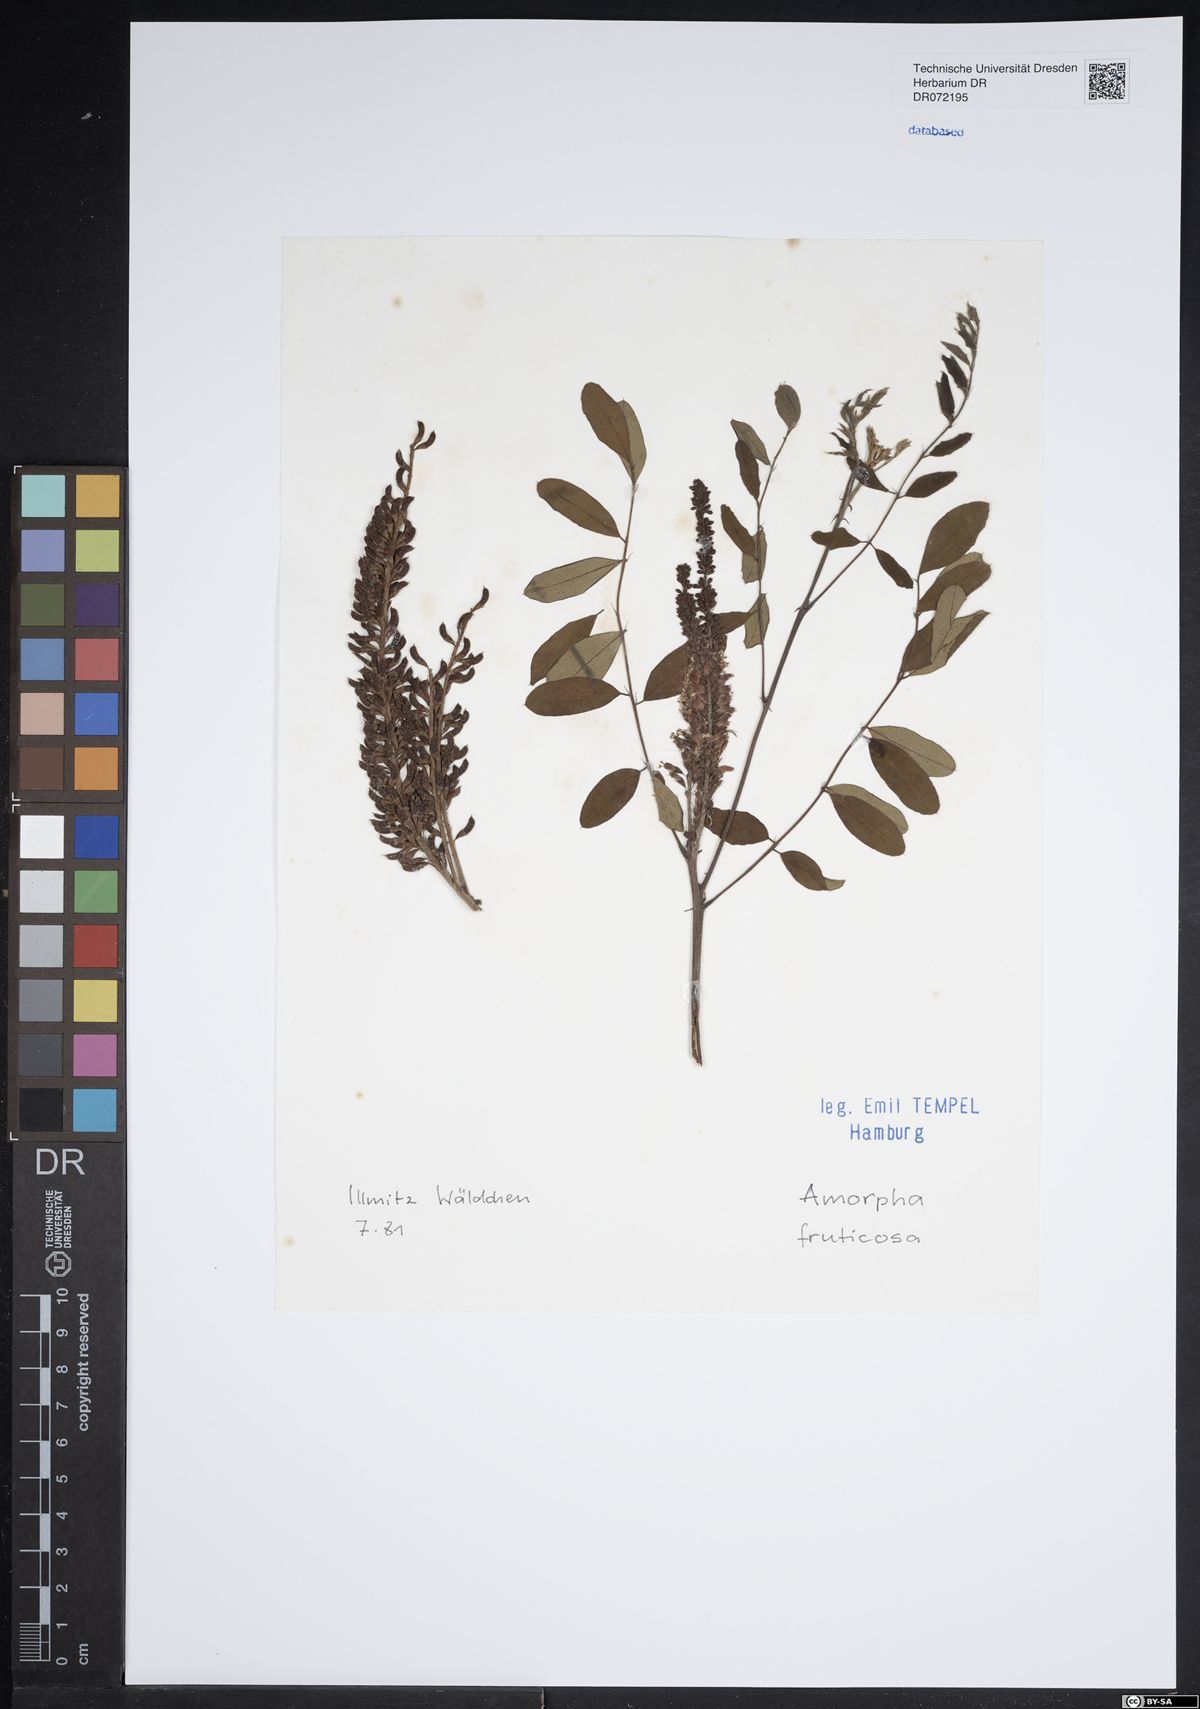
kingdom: Plantae
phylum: Tracheophyta
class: Magnoliopsida
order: Fabales
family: Fabaceae
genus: Amorpha
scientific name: Amorpha fruticosa
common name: False indigo
